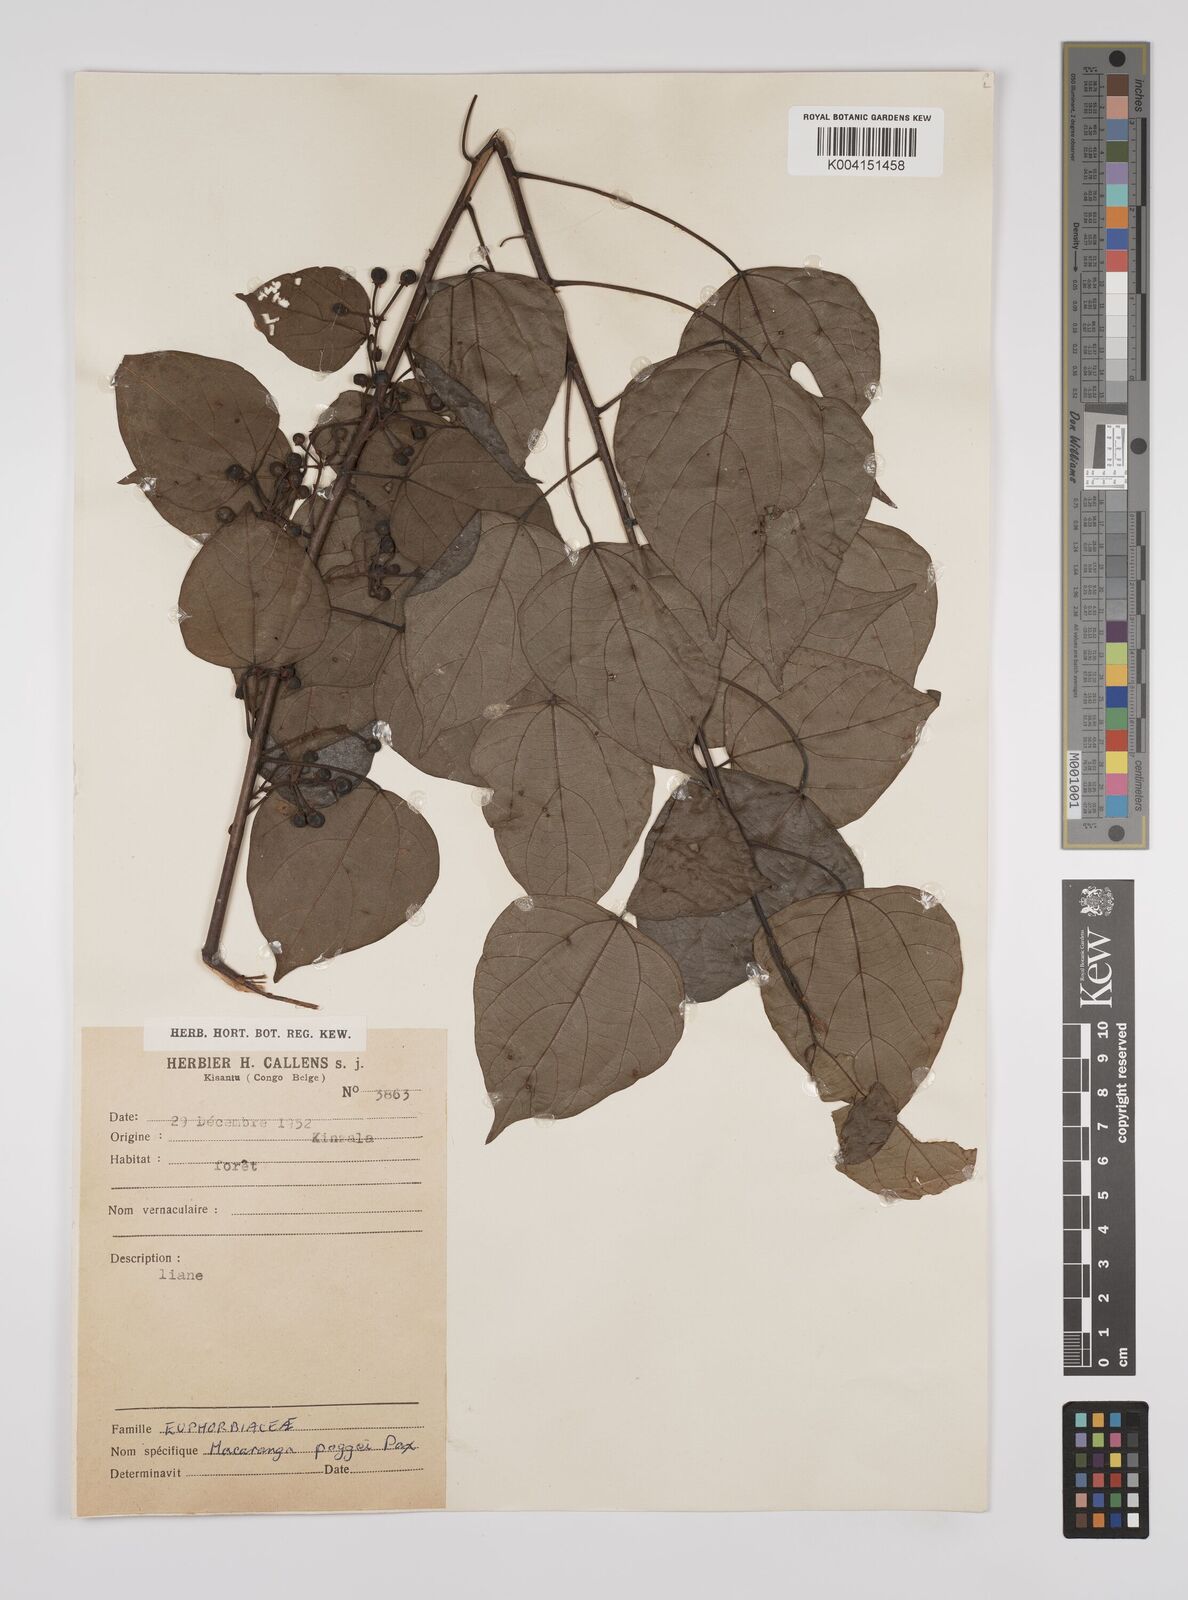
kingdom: Plantae
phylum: Tracheophyta
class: Magnoliopsida
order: Malpighiales
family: Euphorbiaceae
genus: Macaranga
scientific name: Macaranga poggei
